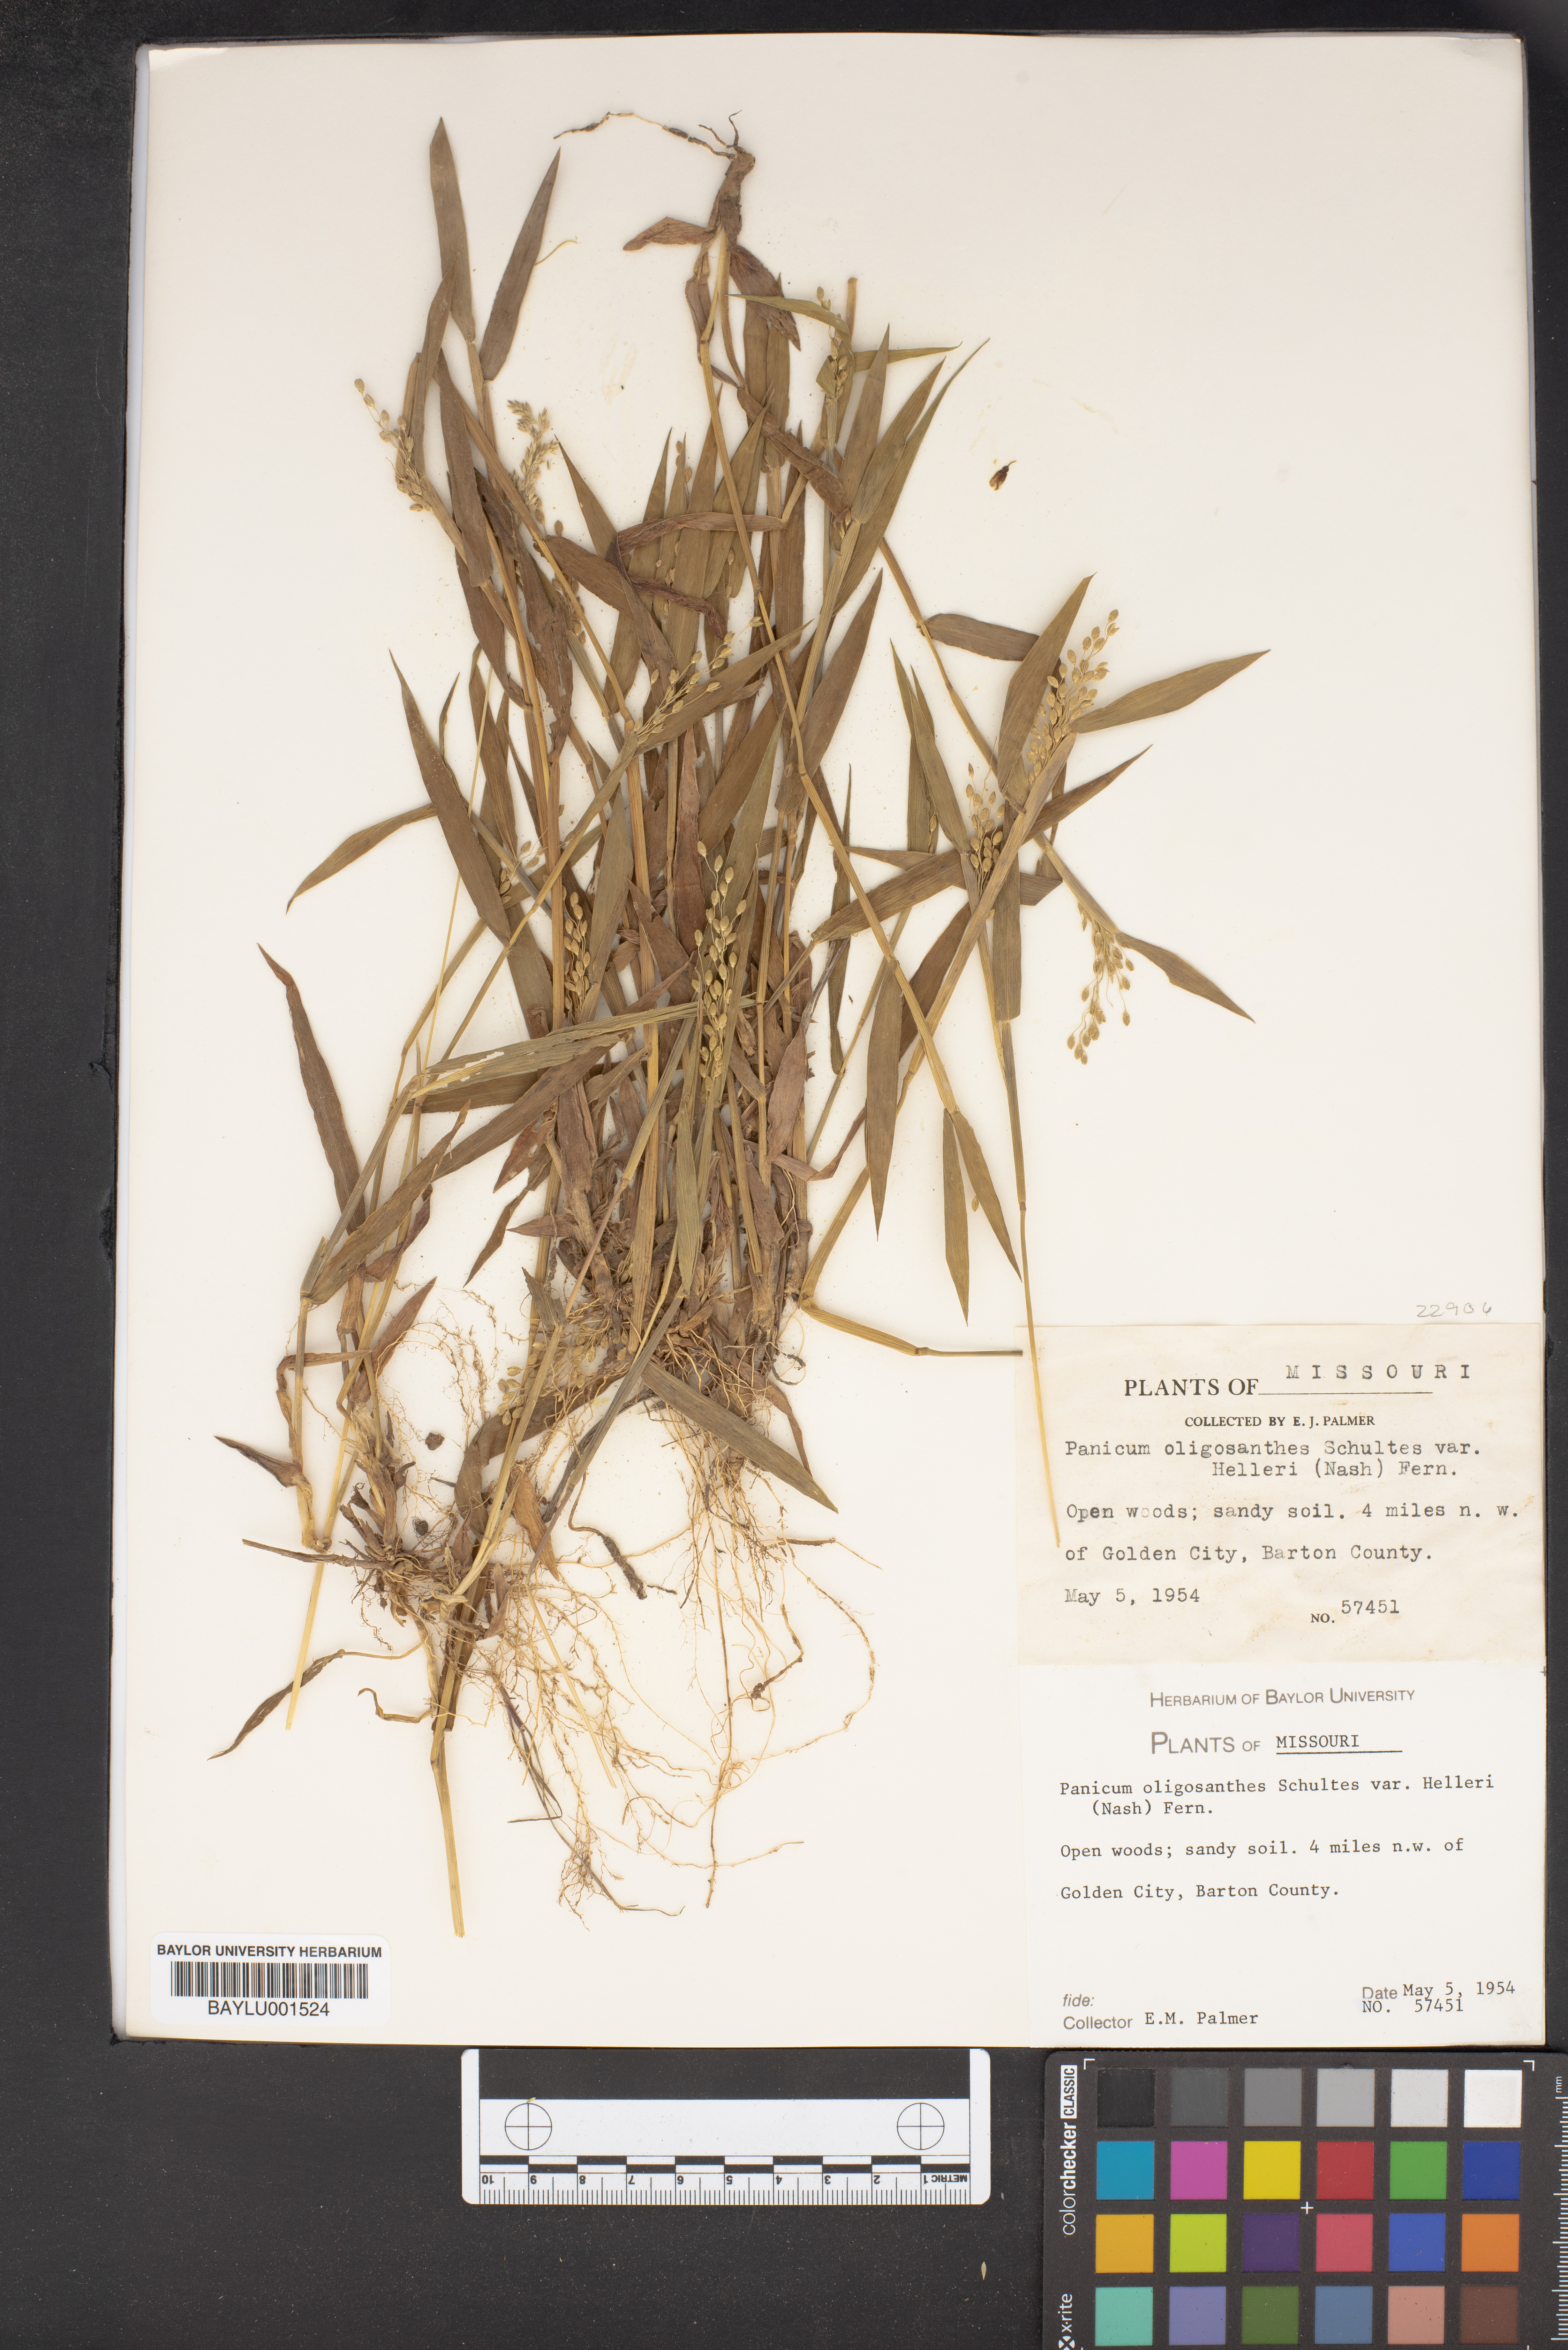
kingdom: Plantae
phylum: Tracheophyta
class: Liliopsida
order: Poales
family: Poaceae
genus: Dichanthelium
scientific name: Dichanthelium oligosanthes
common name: Few-anther obscuregrass
